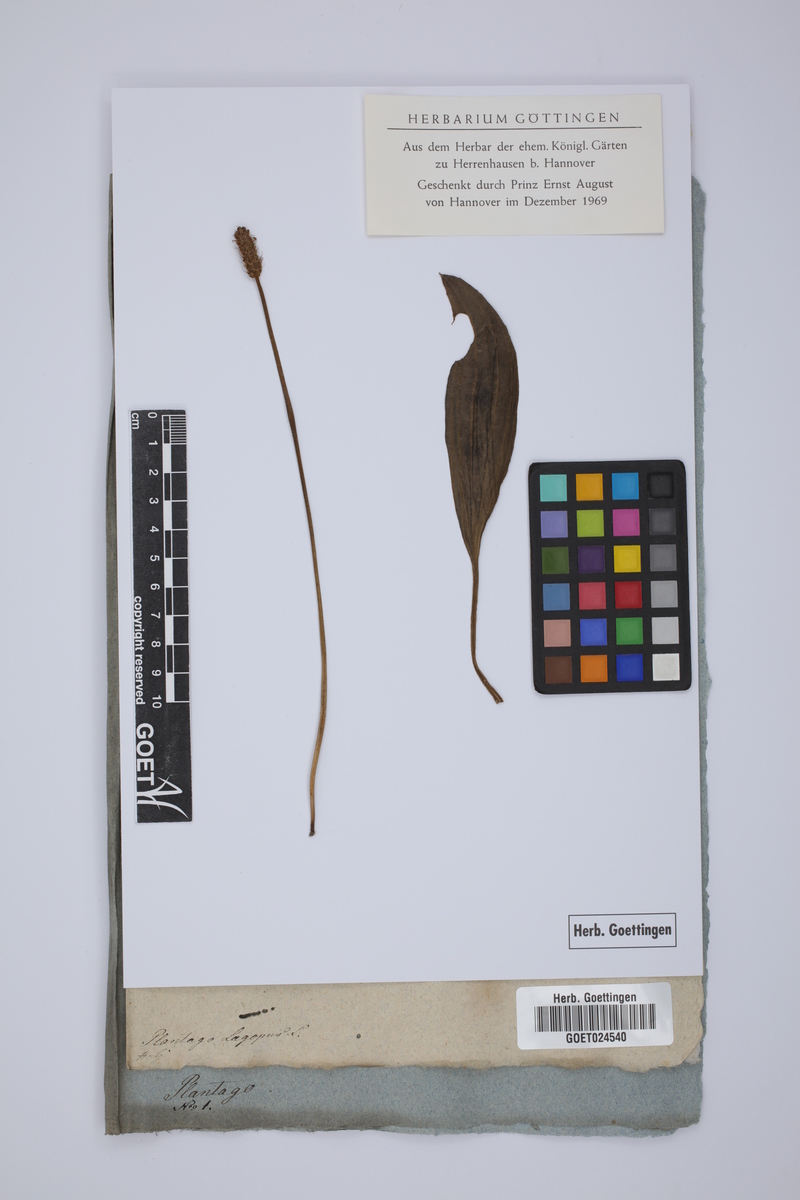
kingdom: Plantae
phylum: Tracheophyta
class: Magnoliopsida
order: Lamiales
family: Plantaginaceae
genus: Plantago
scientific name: Plantago lagopus
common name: Hare-foot plantain
